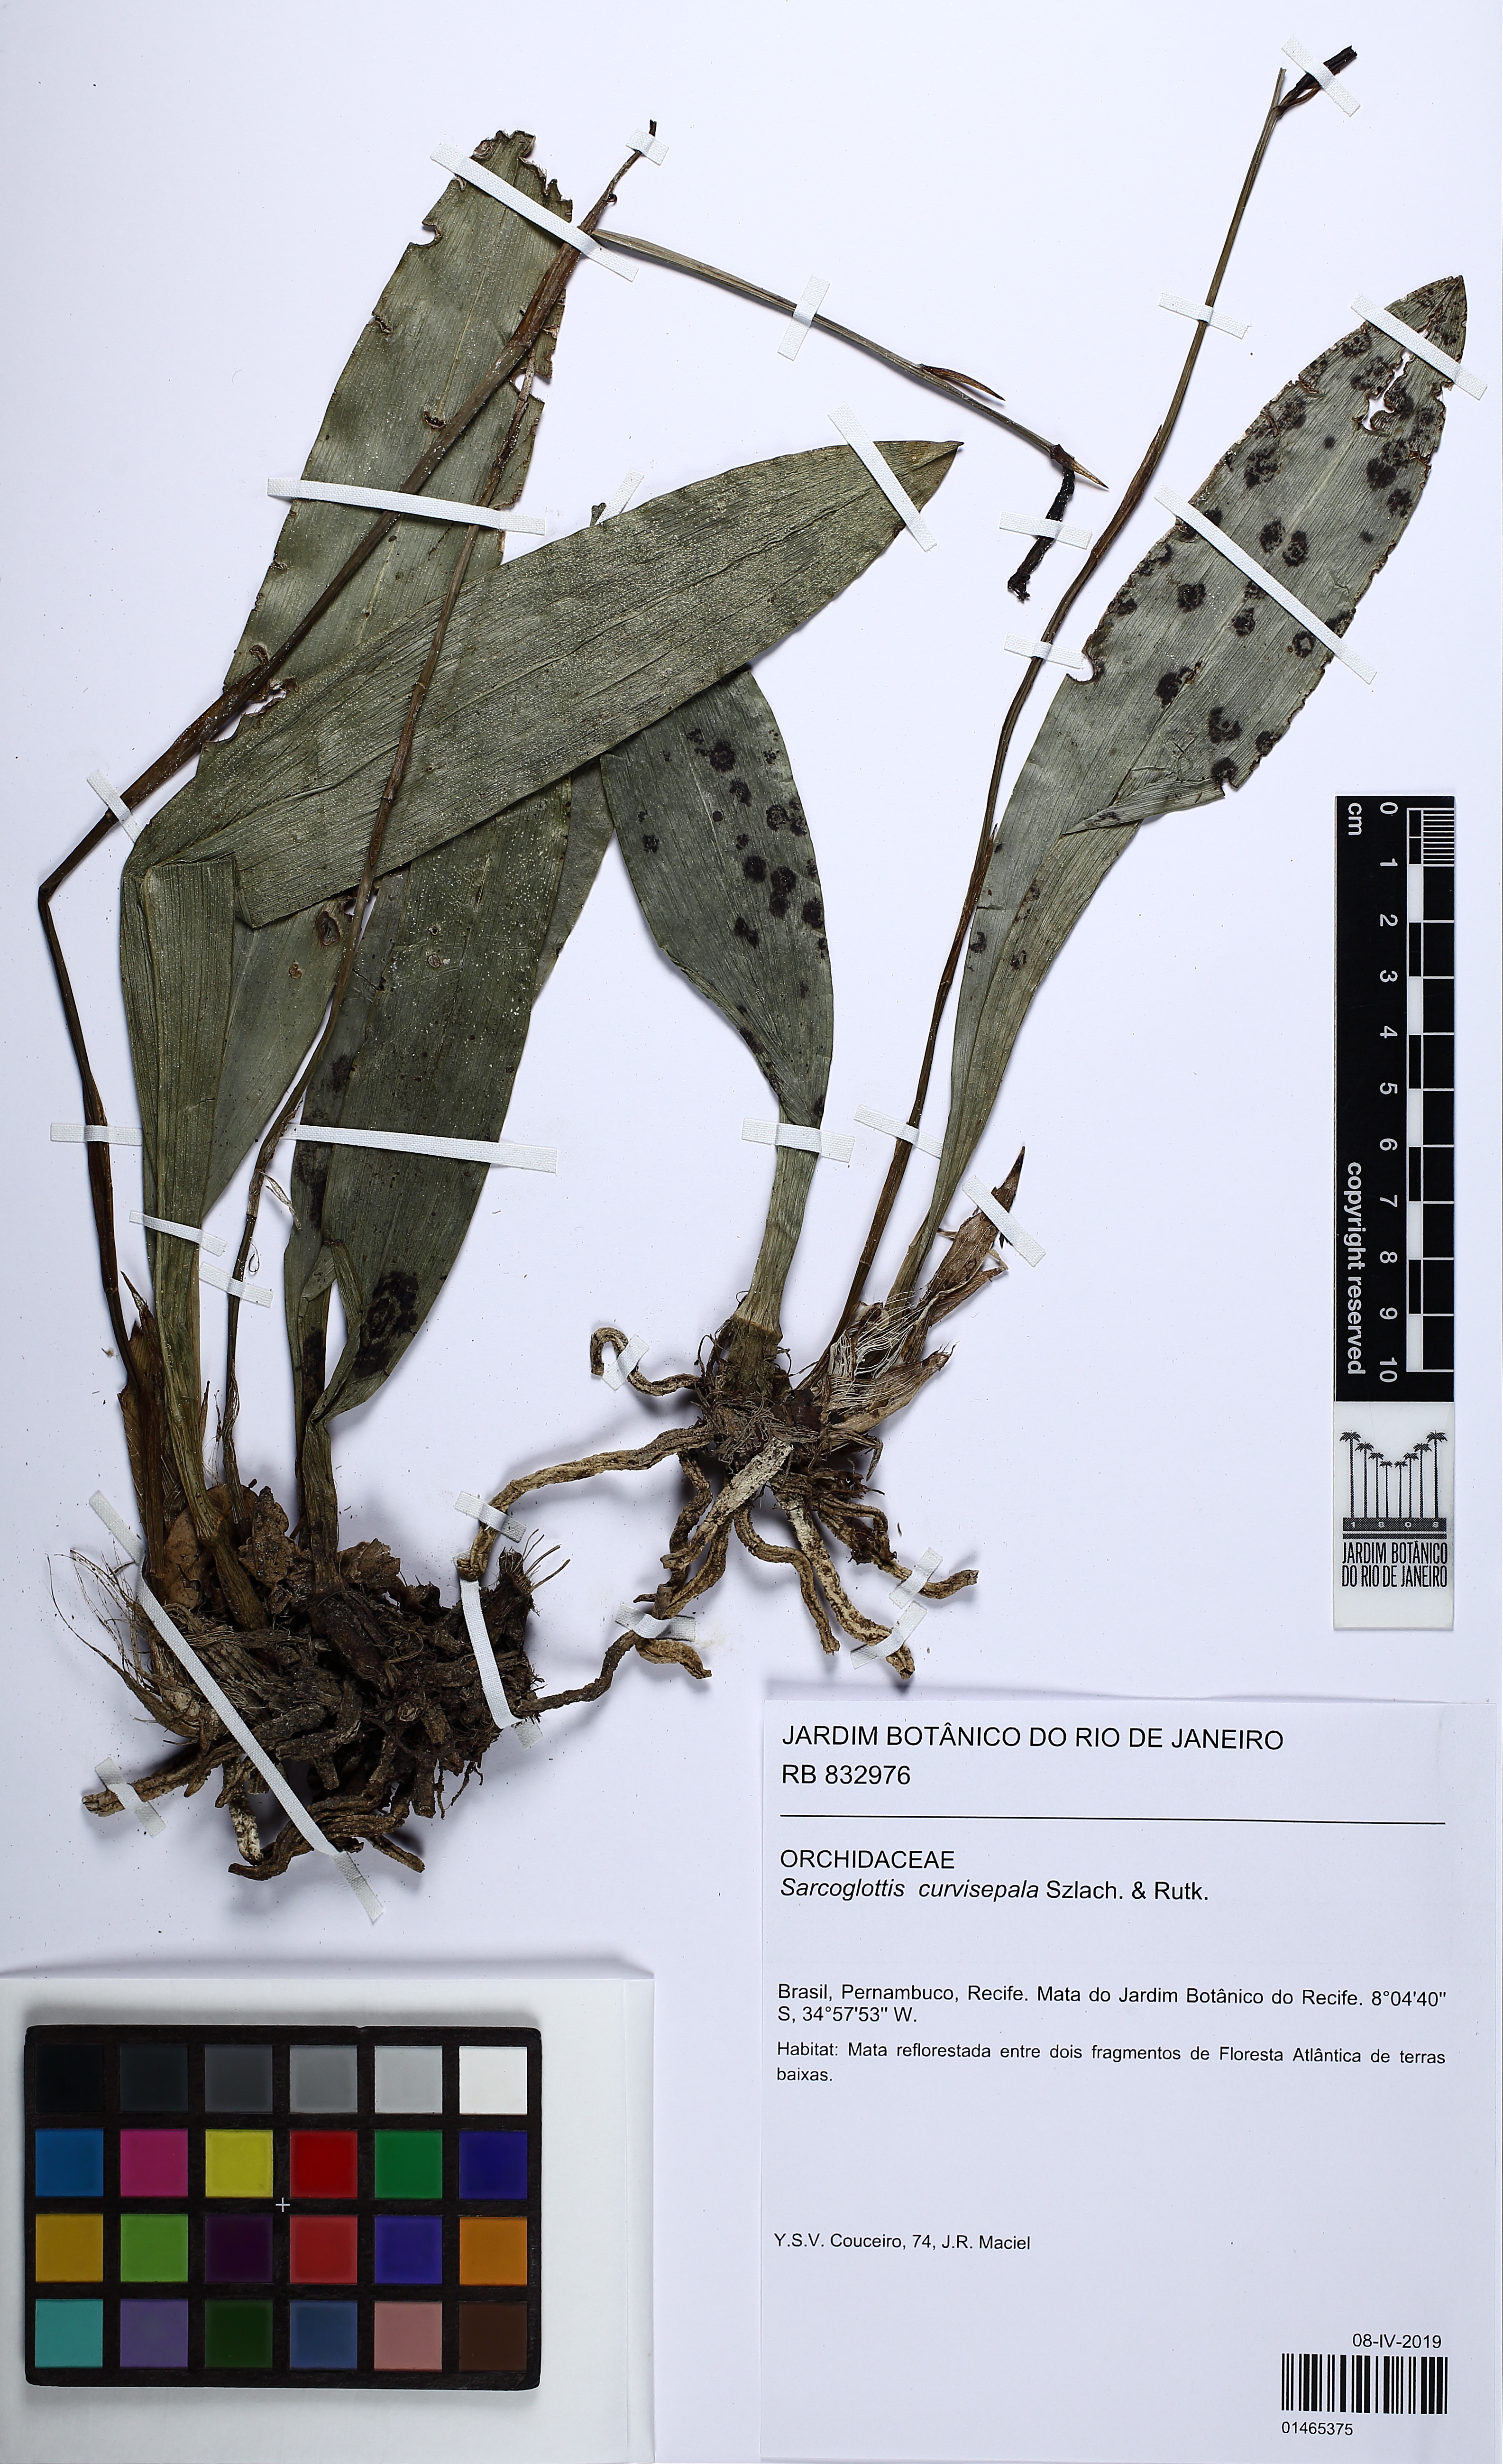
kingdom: Plantae
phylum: Tracheophyta
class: Liliopsida
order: Asparagales
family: Orchidaceae
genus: Sarcoglottis
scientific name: Sarcoglottis curvisepala
